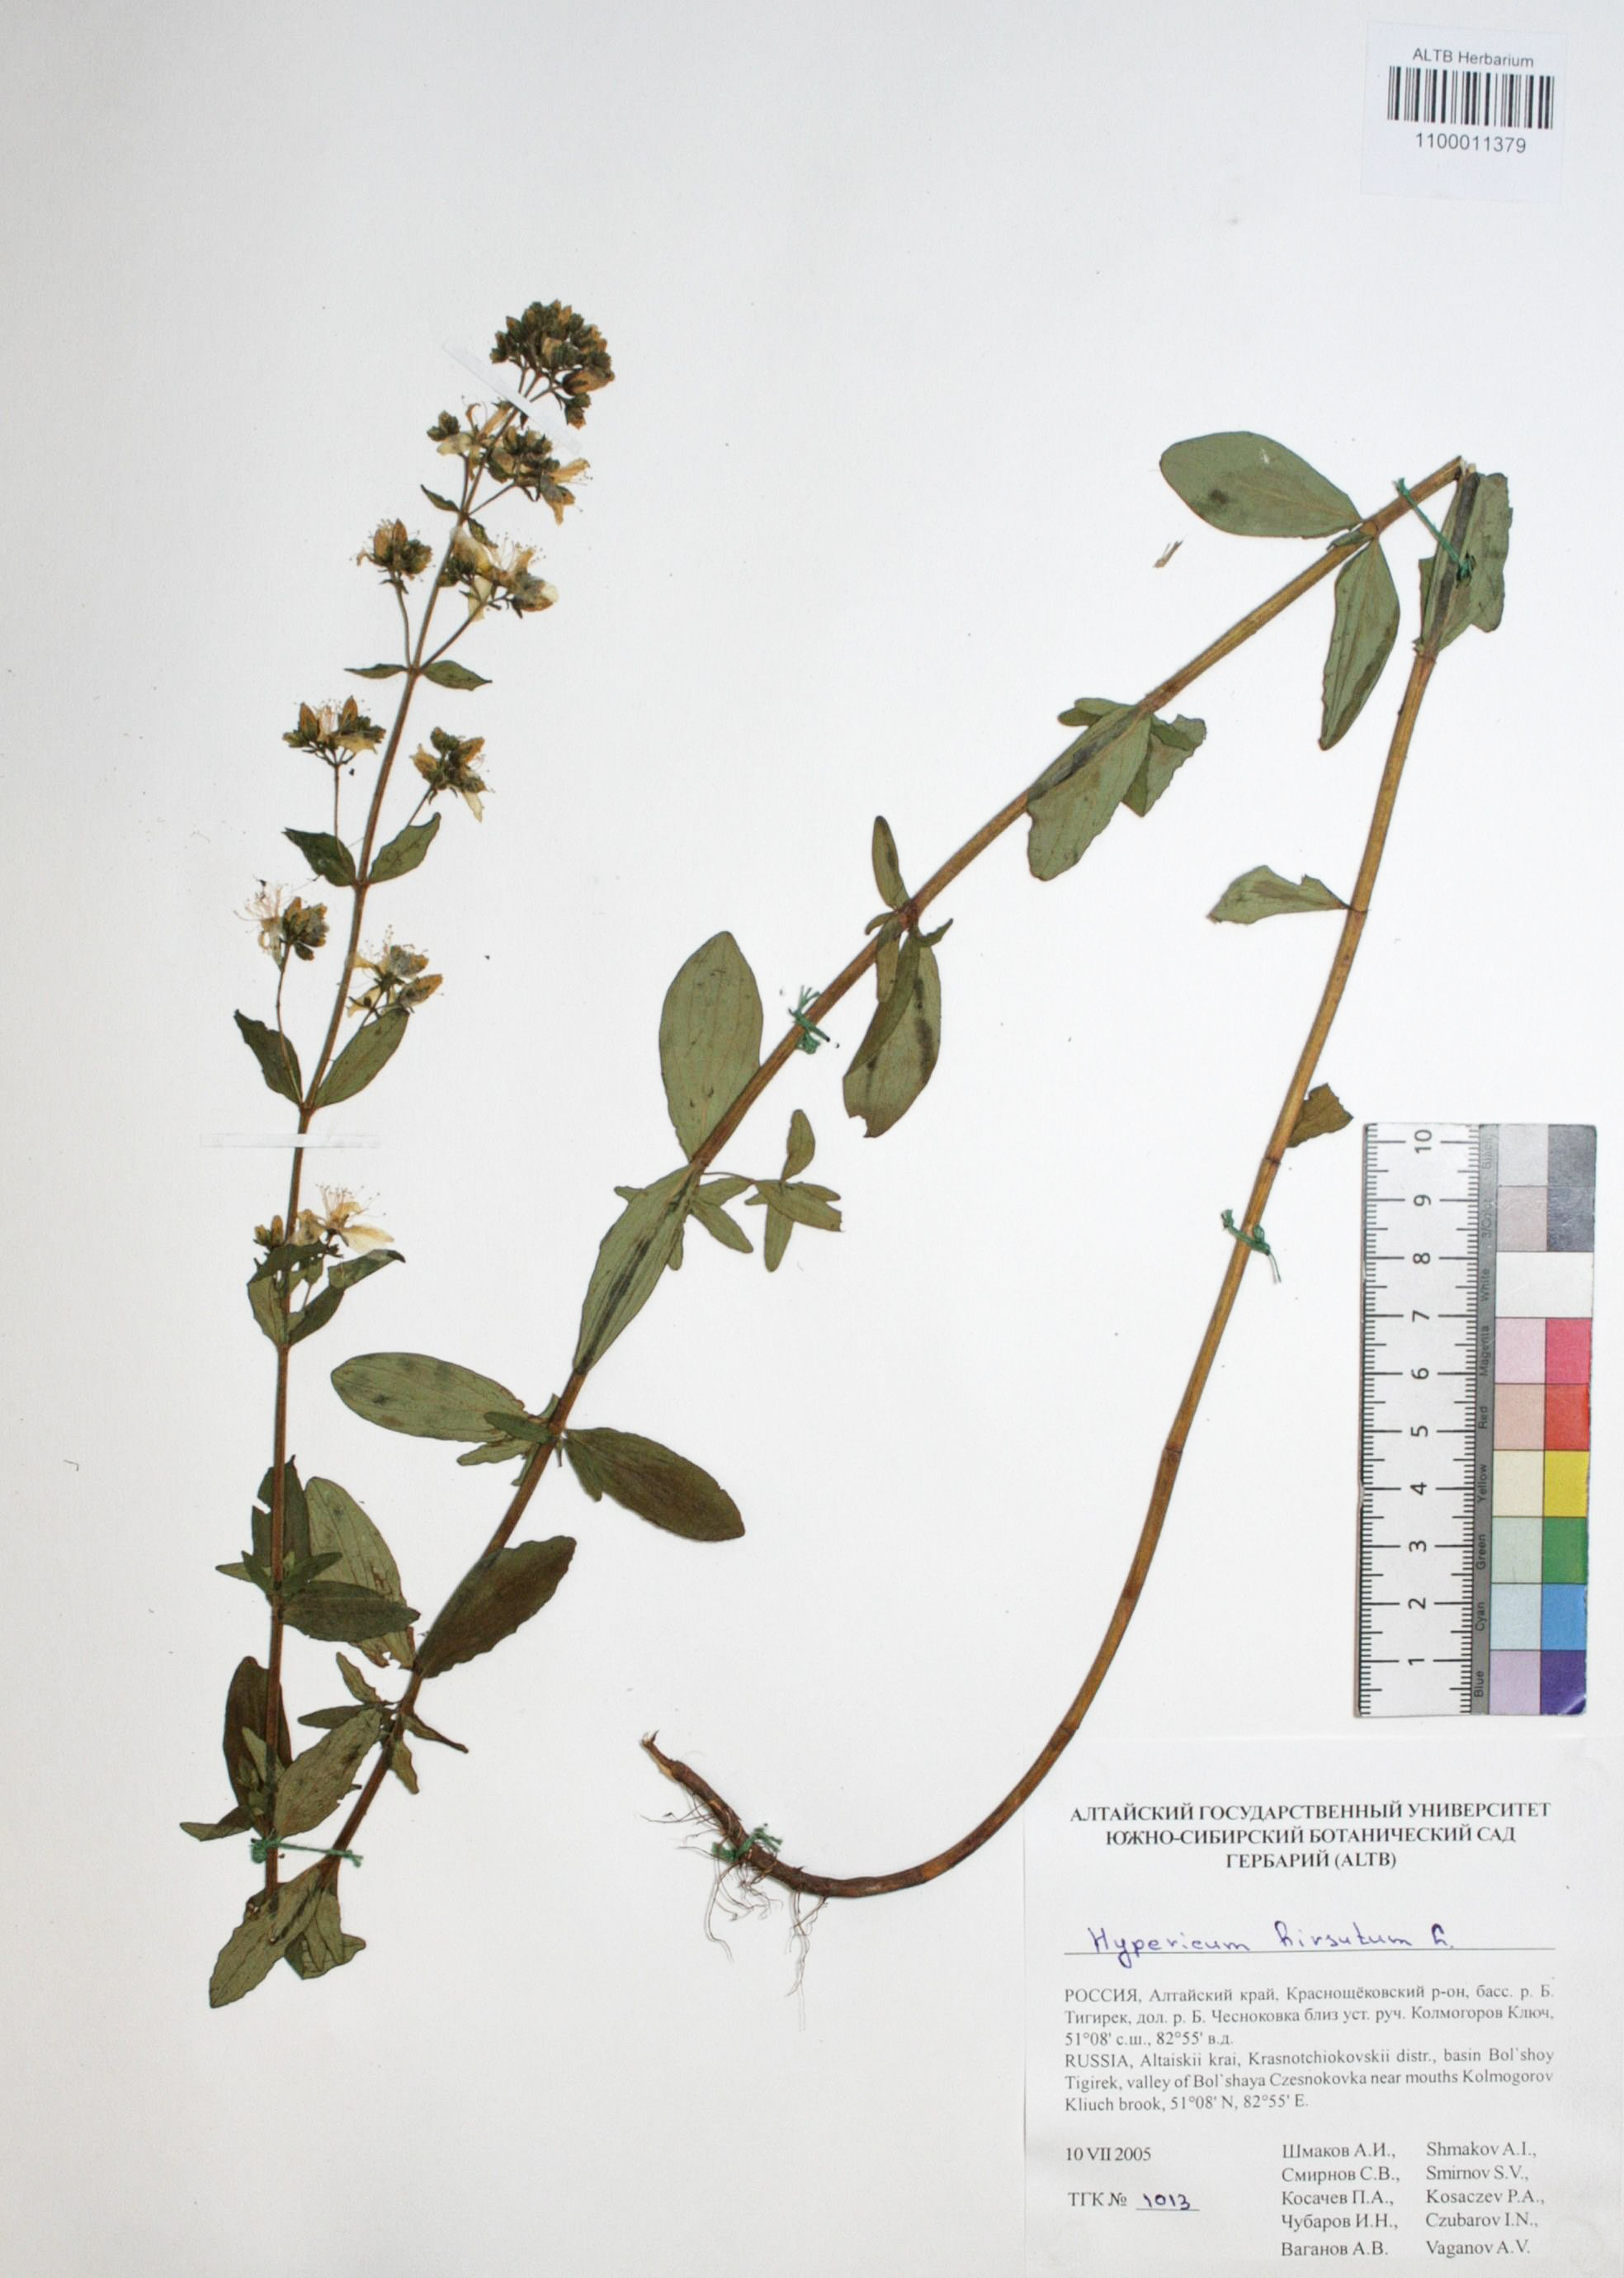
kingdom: Plantae
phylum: Tracheophyta
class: Magnoliopsida
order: Malpighiales
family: Hypericaceae
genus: Hypericum
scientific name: Hypericum hirsutum
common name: Hairy st. john's-wort
